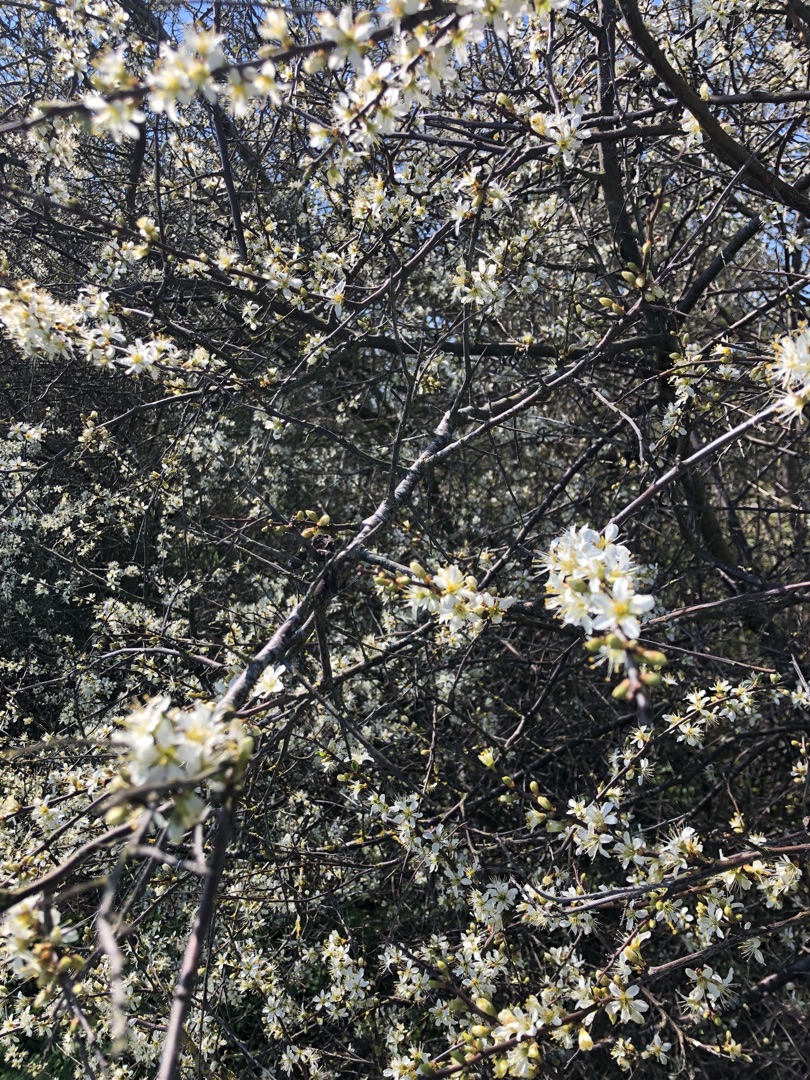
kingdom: Plantae
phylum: Tracheophyta
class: Magnoliopsida
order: Rosales
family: Rosaceae
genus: Prunus
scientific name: Prunus spinosa
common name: Slåen
